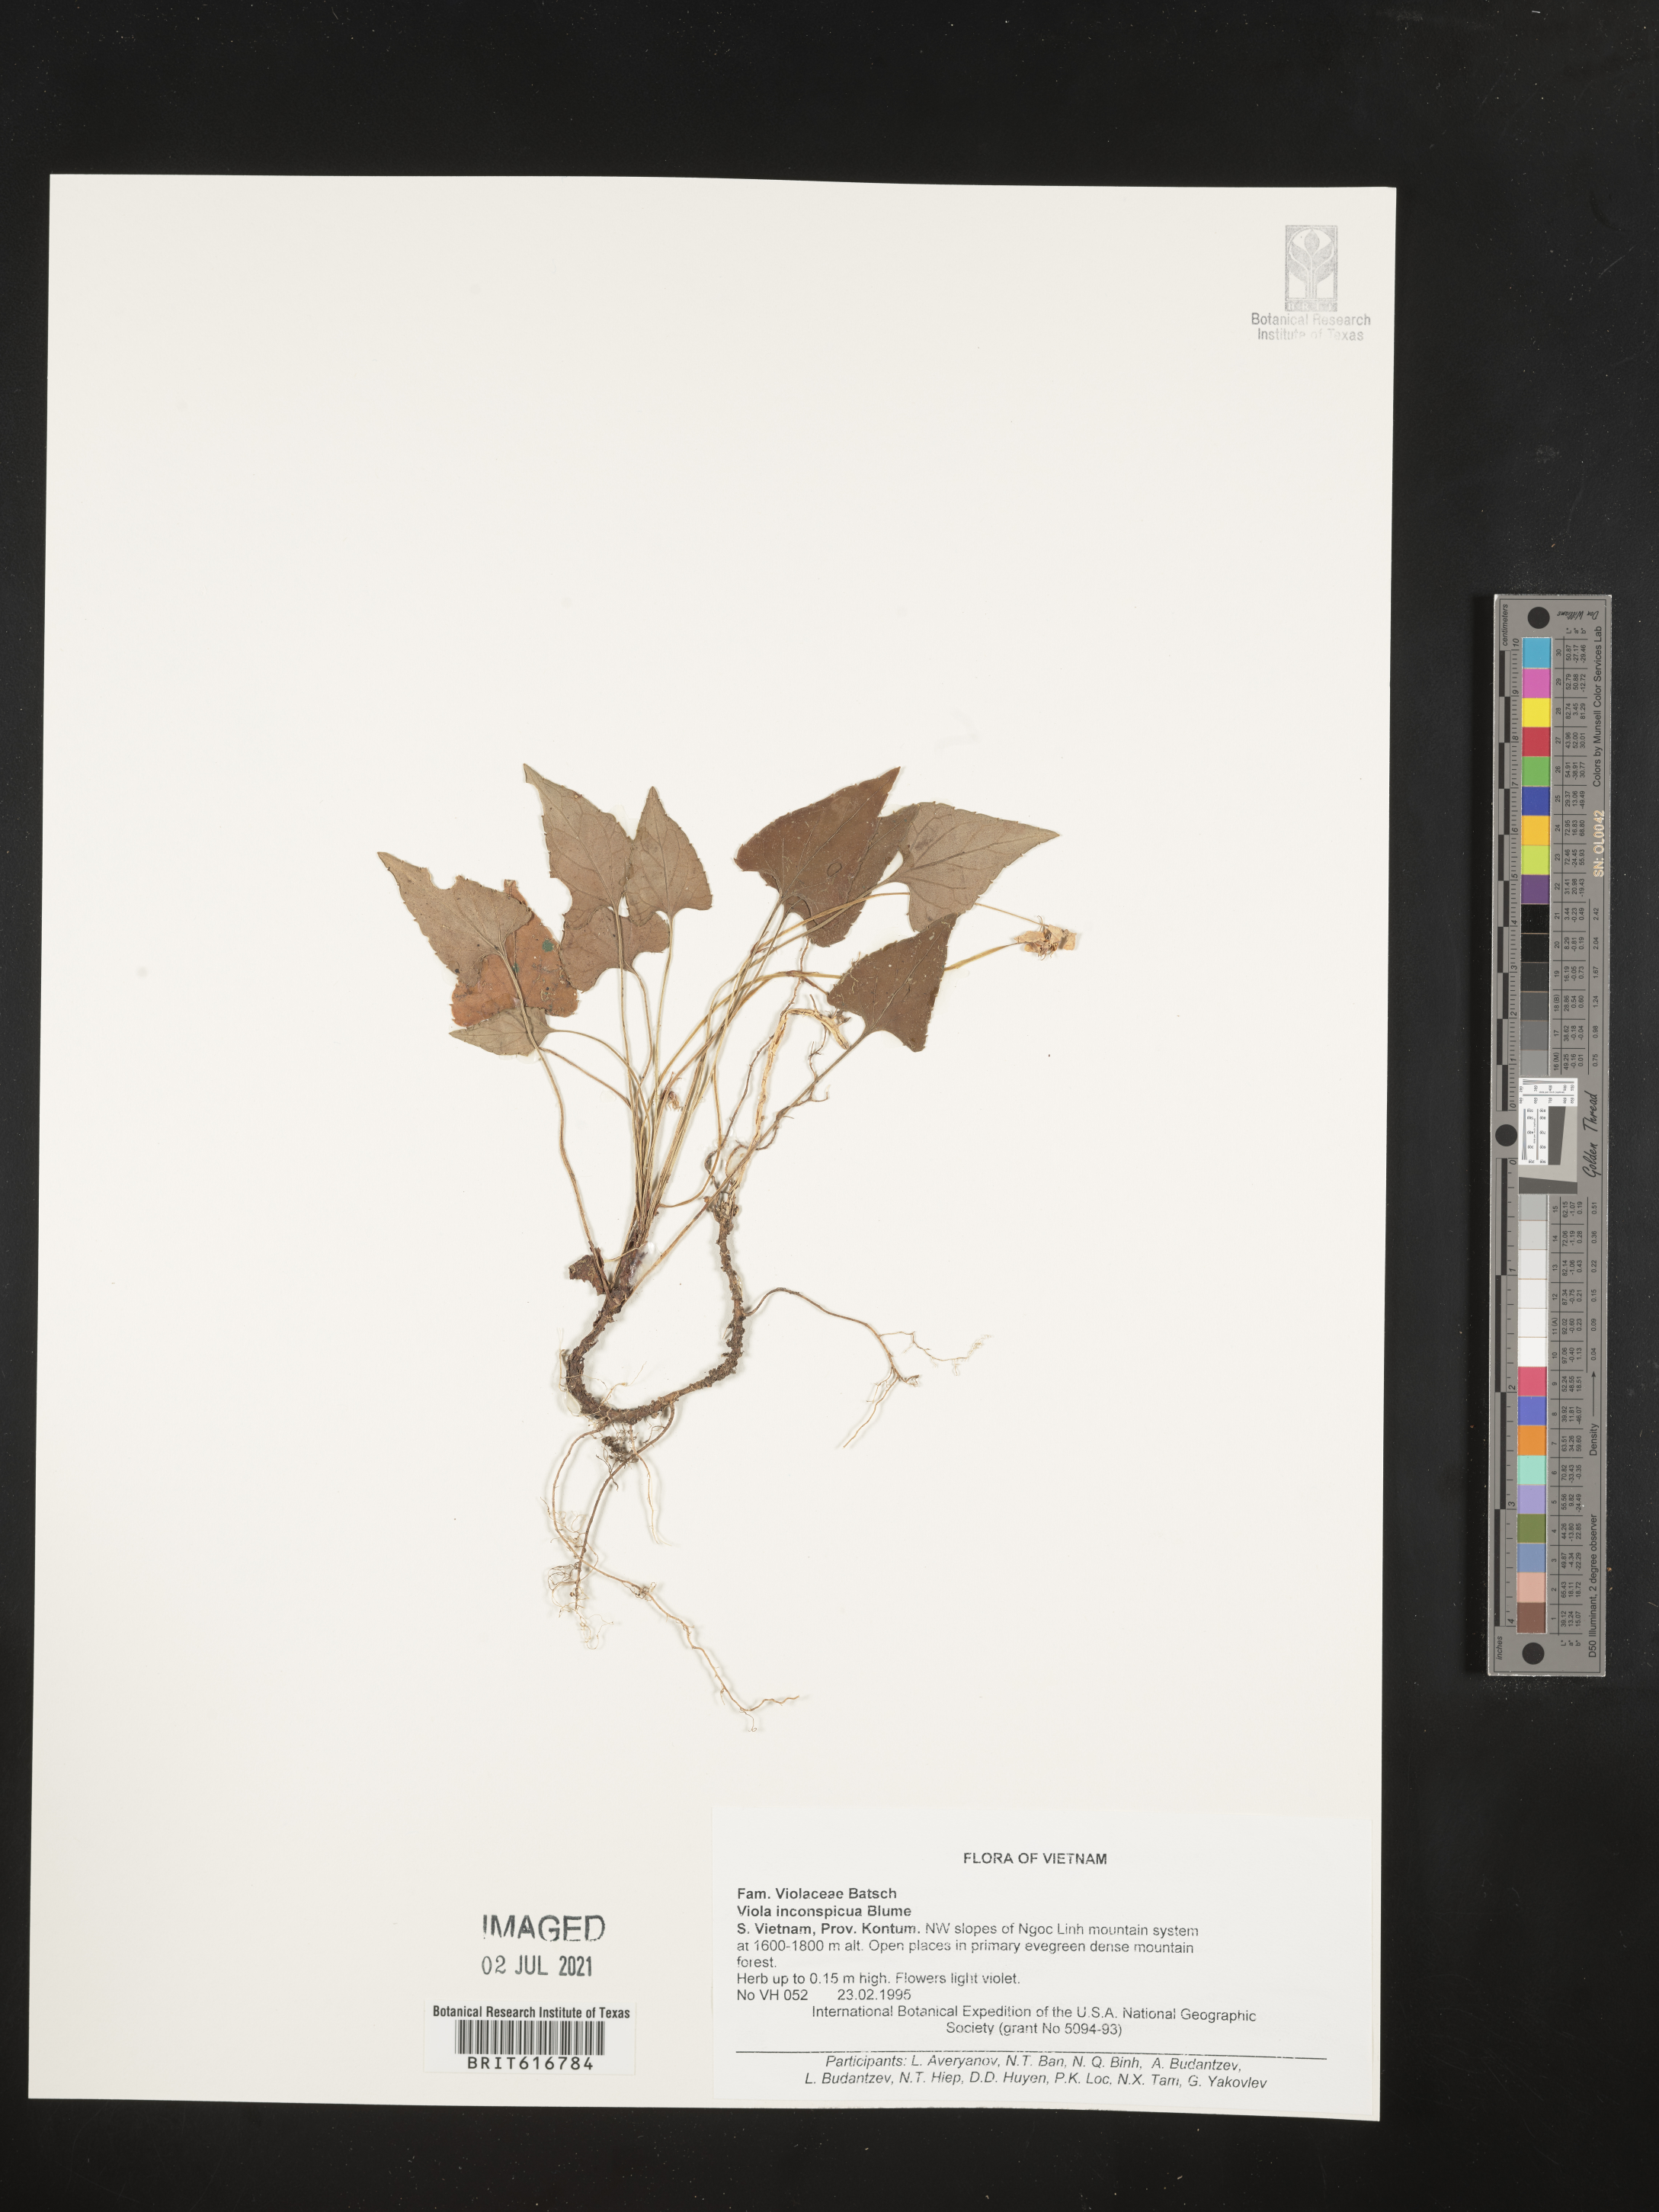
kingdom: Plantae
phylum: Tracheophyta
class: Magnoliopsida
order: Malpighiales
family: Violaceae
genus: Viola
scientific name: Viola inconspicua
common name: Long sepal violet
